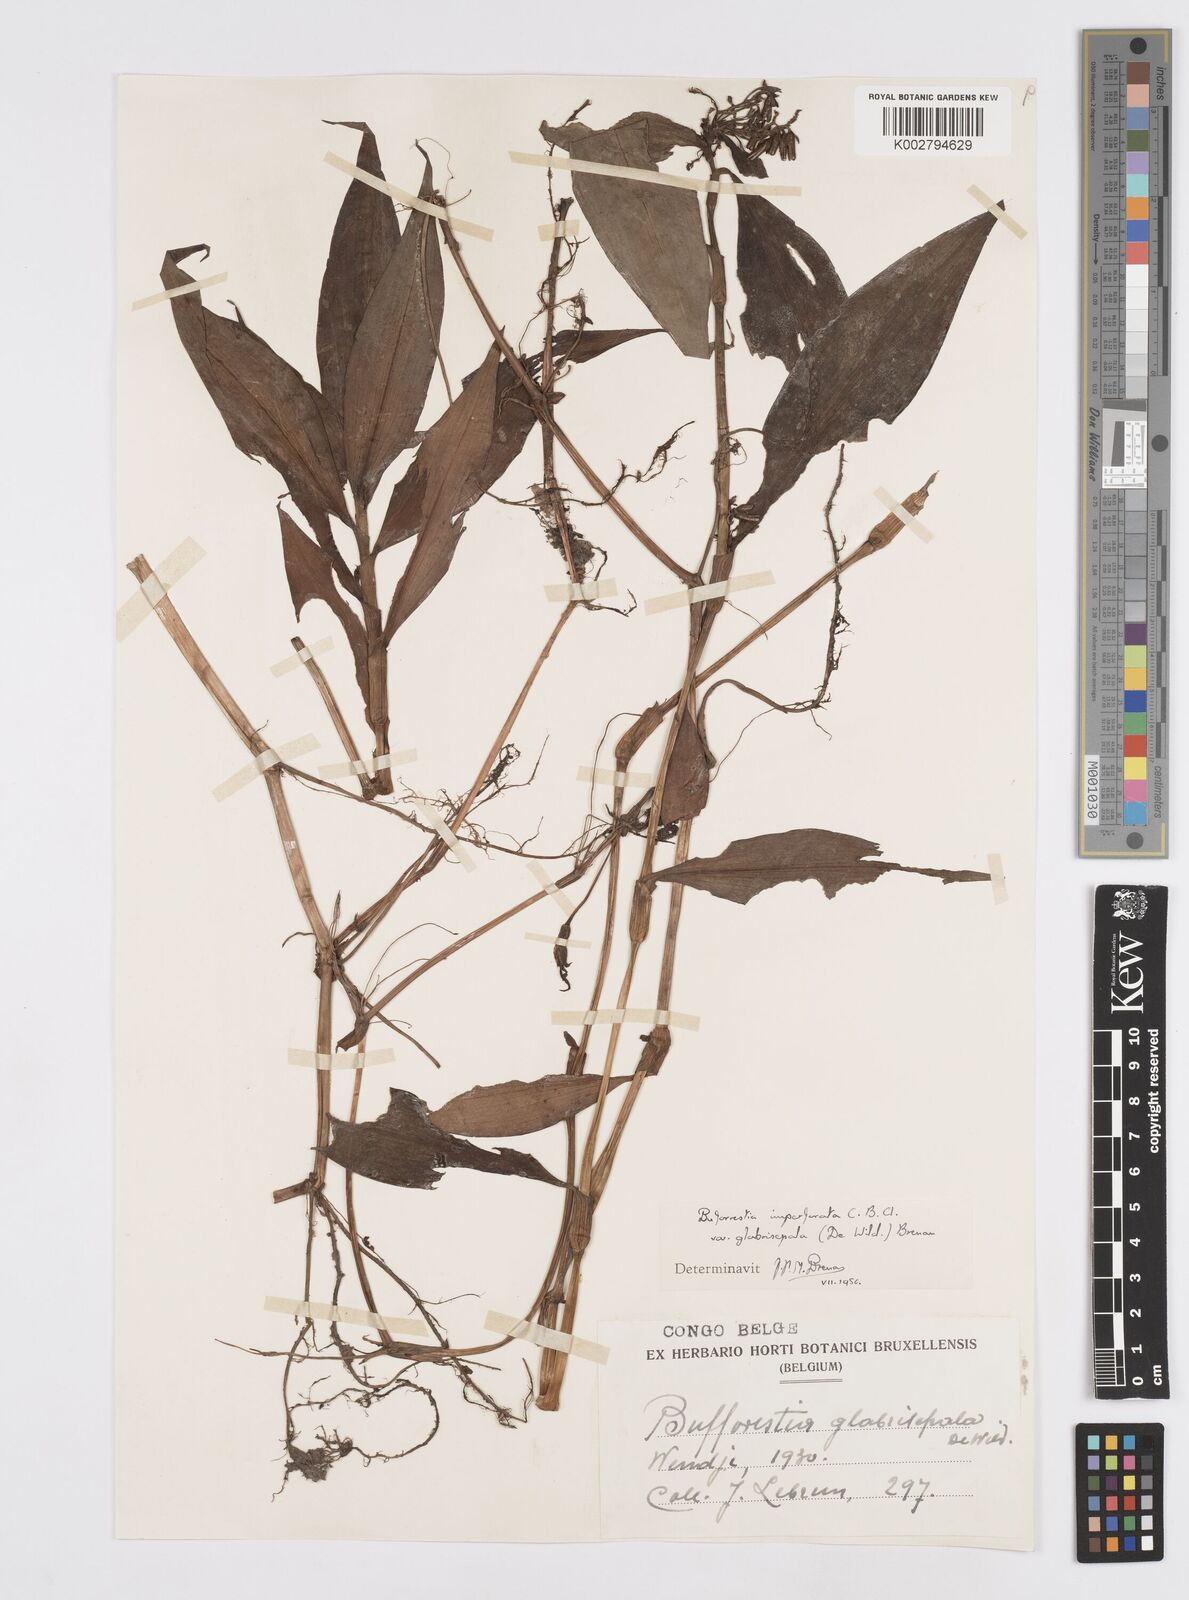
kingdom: Plantae
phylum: Tracheophyta
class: Liliopsida
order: Commelinales
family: Commelinaceae
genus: Stanfieldiella
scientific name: Stanfieldiella imperforata
